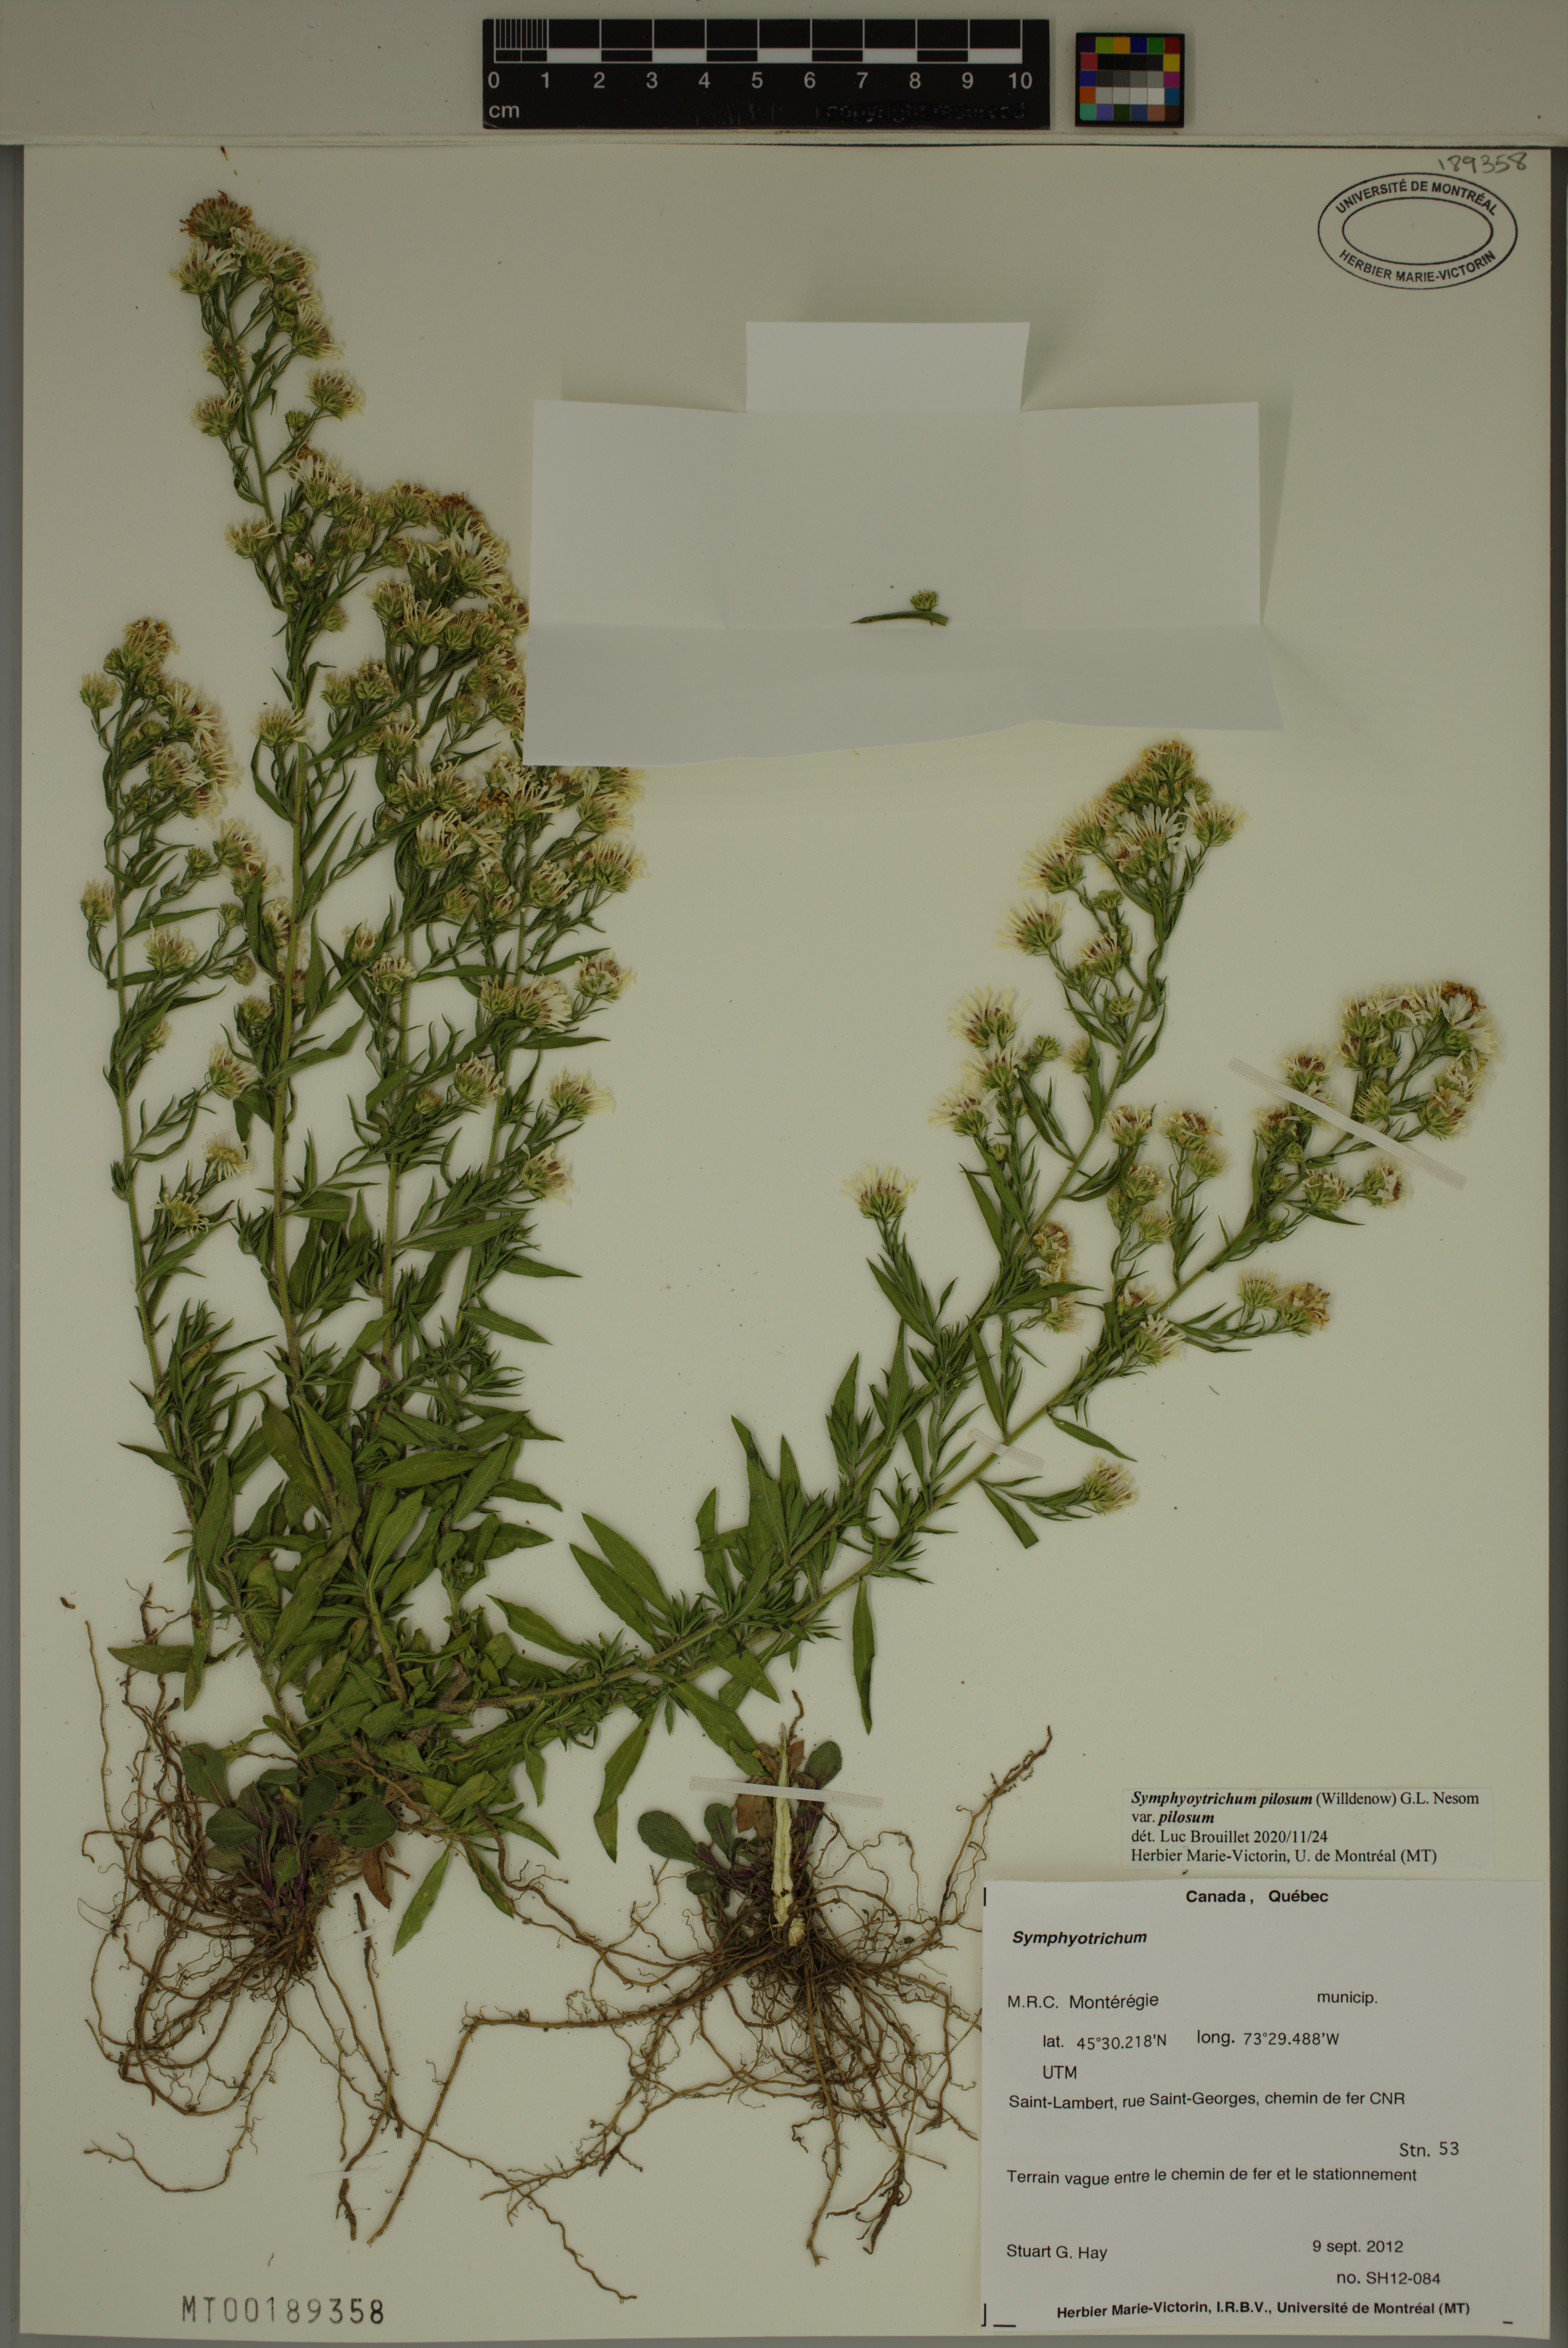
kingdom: Plantae
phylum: Tracheophyta
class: Magnoliopsida
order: Asterales
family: Asteraceae
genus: Symphyotrichum
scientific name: Symphyotrichum pilosum
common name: Awl aster
